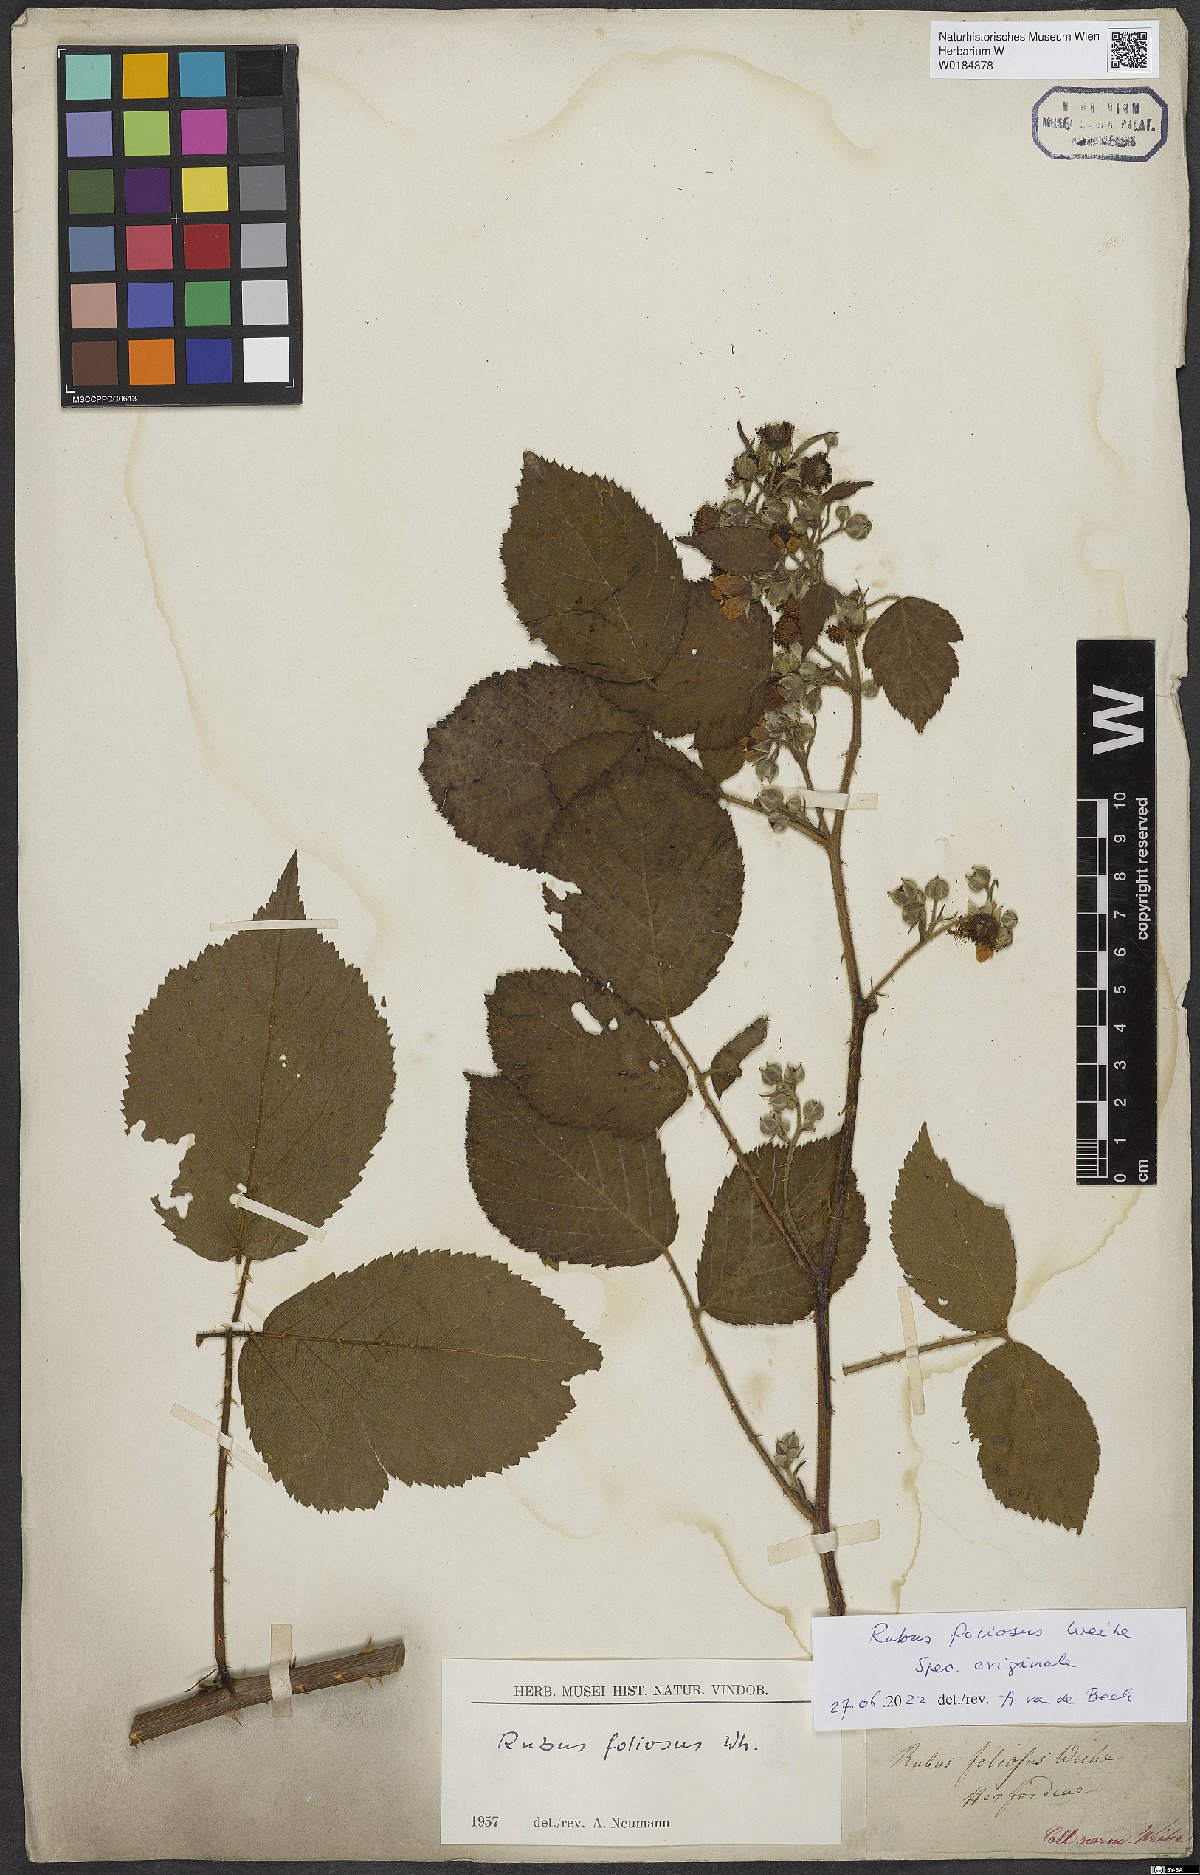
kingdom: Plantae
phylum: Tracheophyta
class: Magnoliopsida
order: Rosales
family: Rosaceae
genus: Rubus
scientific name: Rubus foliosus
